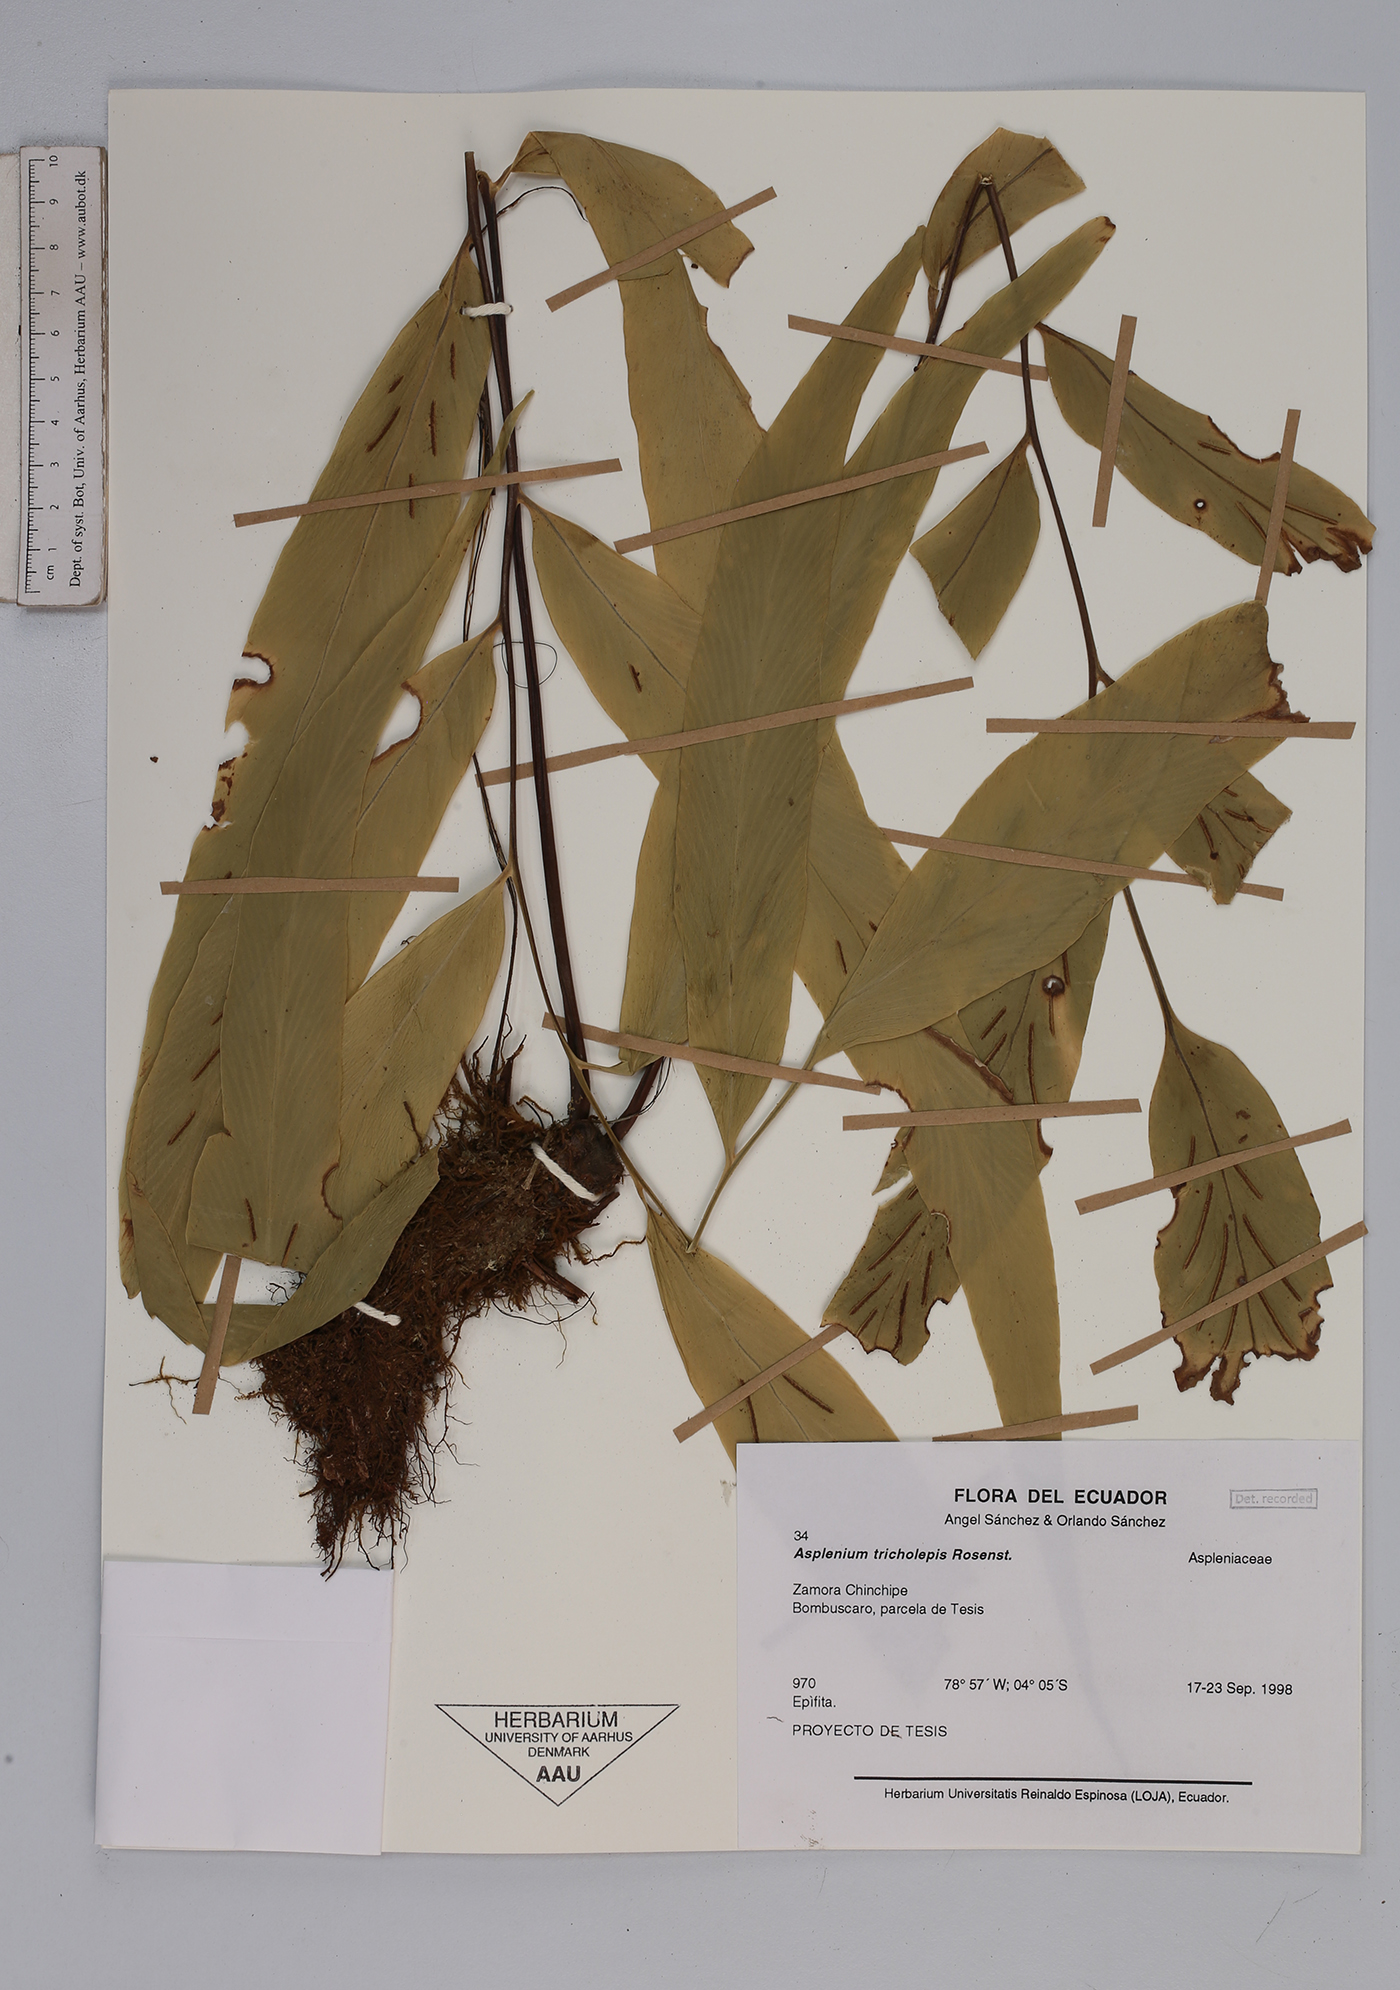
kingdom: Plantae
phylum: Tracheophyta
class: Polypodiopsida
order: Polypodiales
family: Aspleniaceae
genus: Asplenium
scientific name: Asplenium tricholepis
